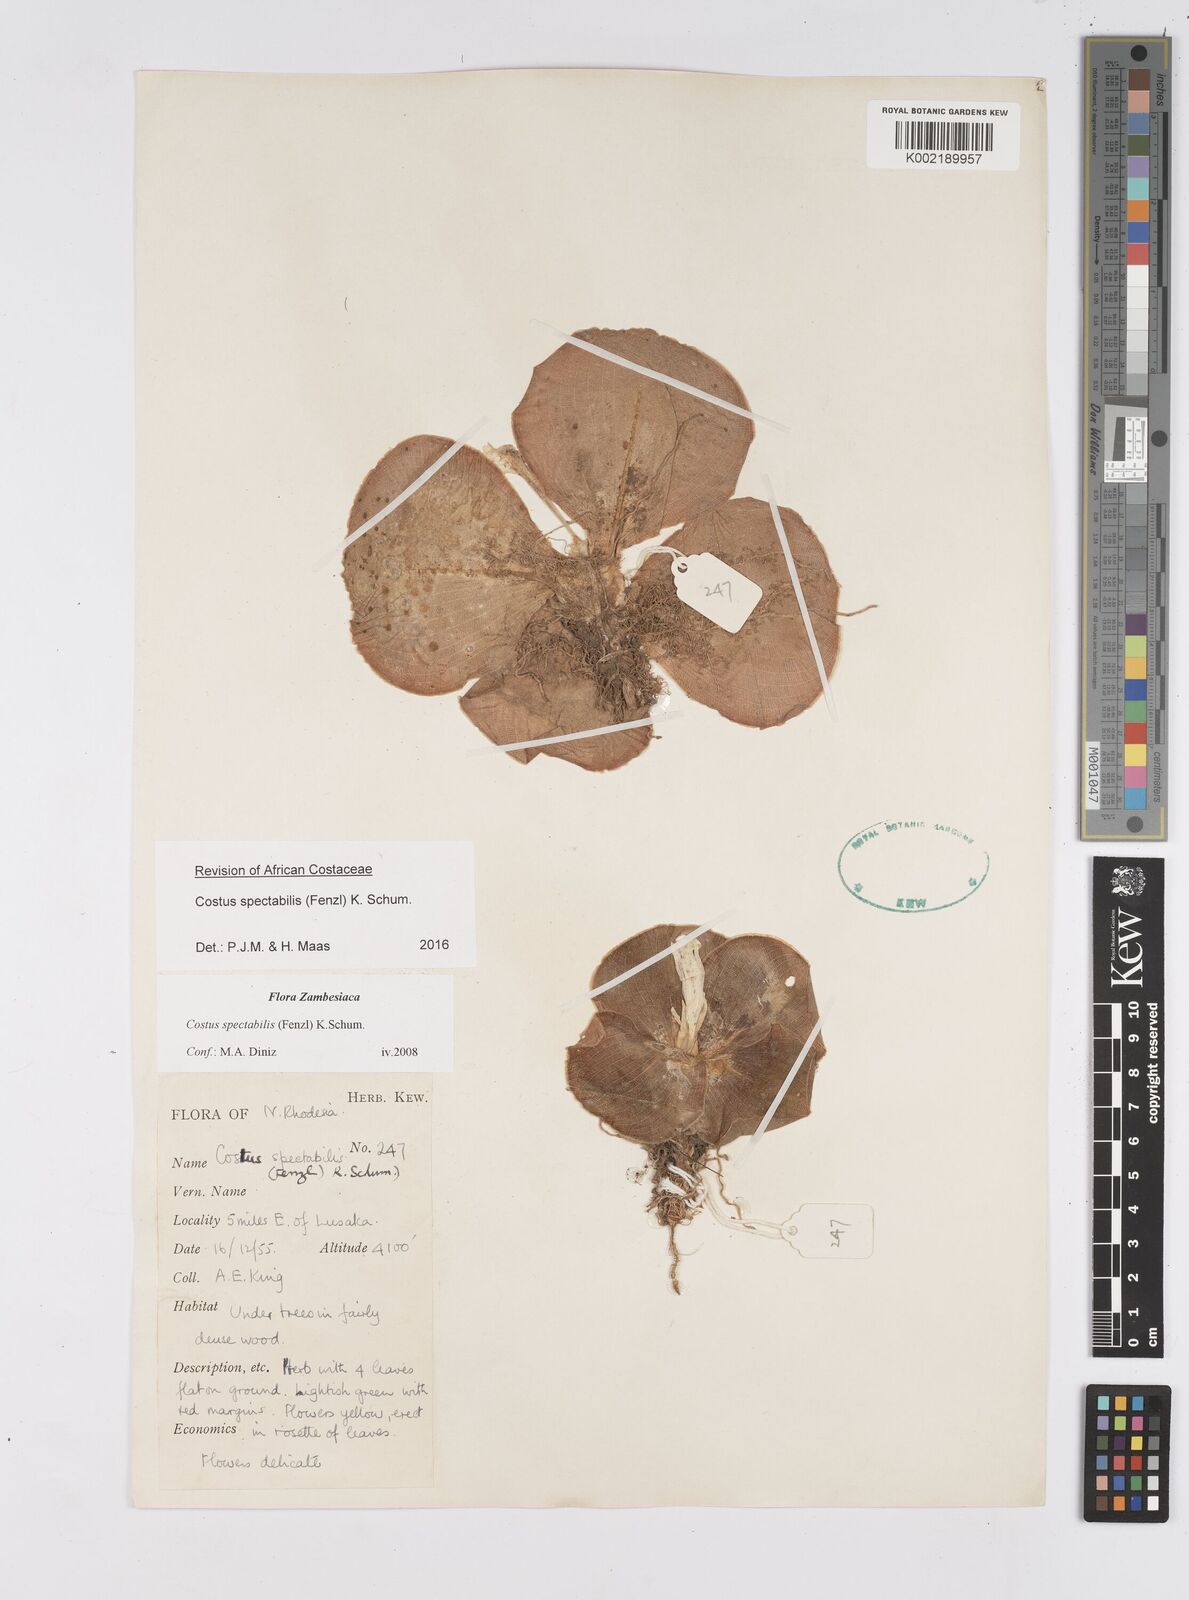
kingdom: Plantae
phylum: Tracheophyta
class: Liliopsida
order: Zingiberales
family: Costaceae
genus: Costus
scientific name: Costus spectabilis
